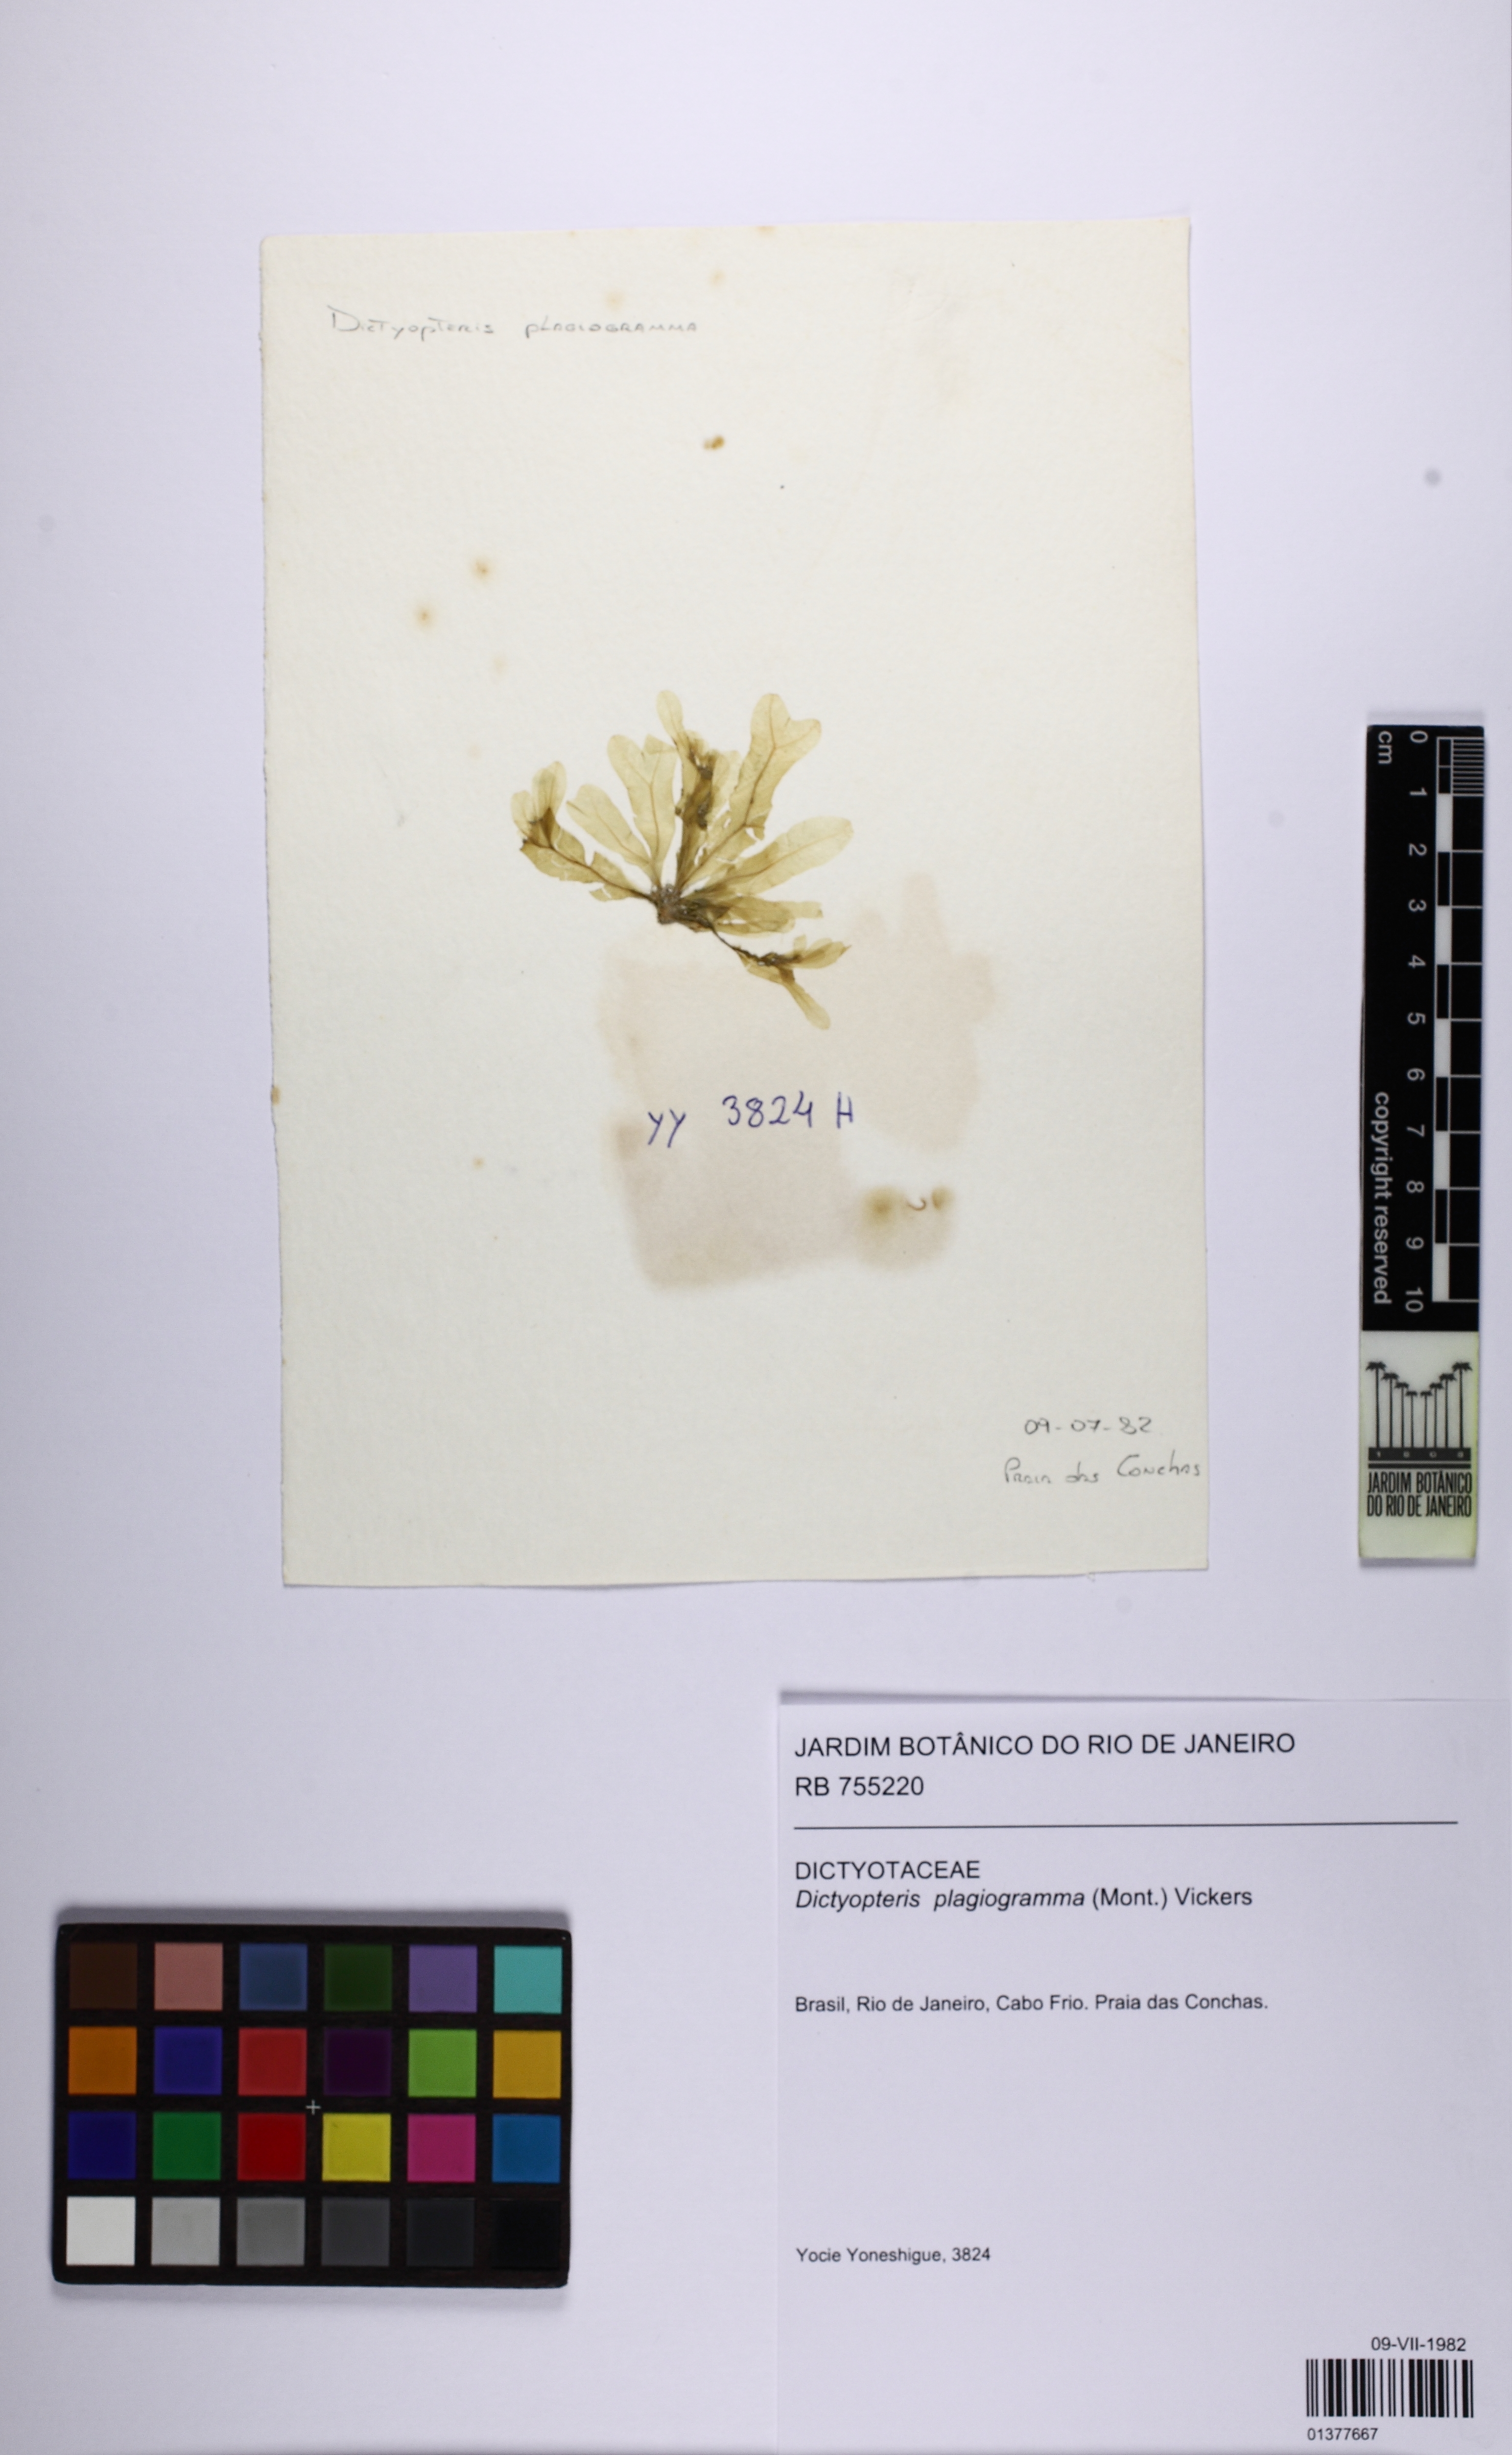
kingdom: Chromista
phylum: Ochrophyta
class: Phaeophyceae
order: Dictyotales
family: Dictyotaceae
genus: Dictyopteris
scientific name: Dictyopteris plagiogramma
